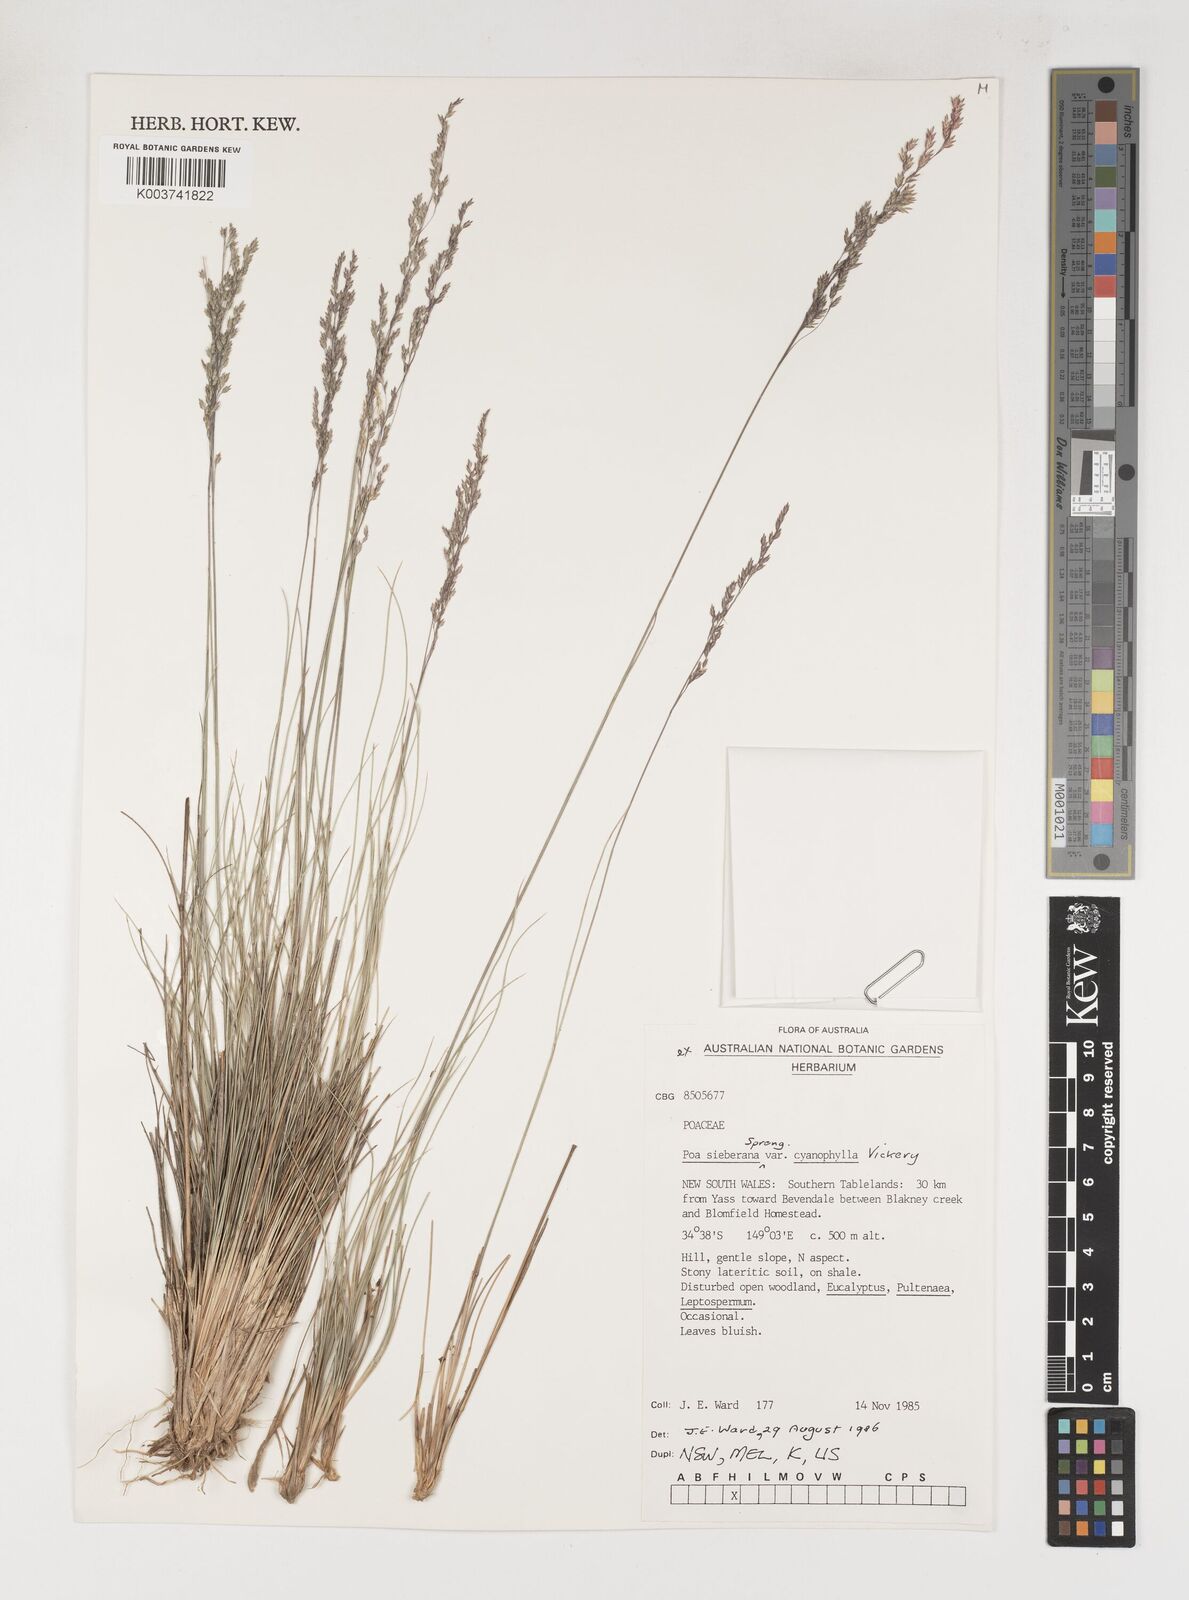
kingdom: Plantae
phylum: Tracheophyta
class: Liliopsida
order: Poales
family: Poaceae
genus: Poa
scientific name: Poa sieberiana
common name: Tussock poa
